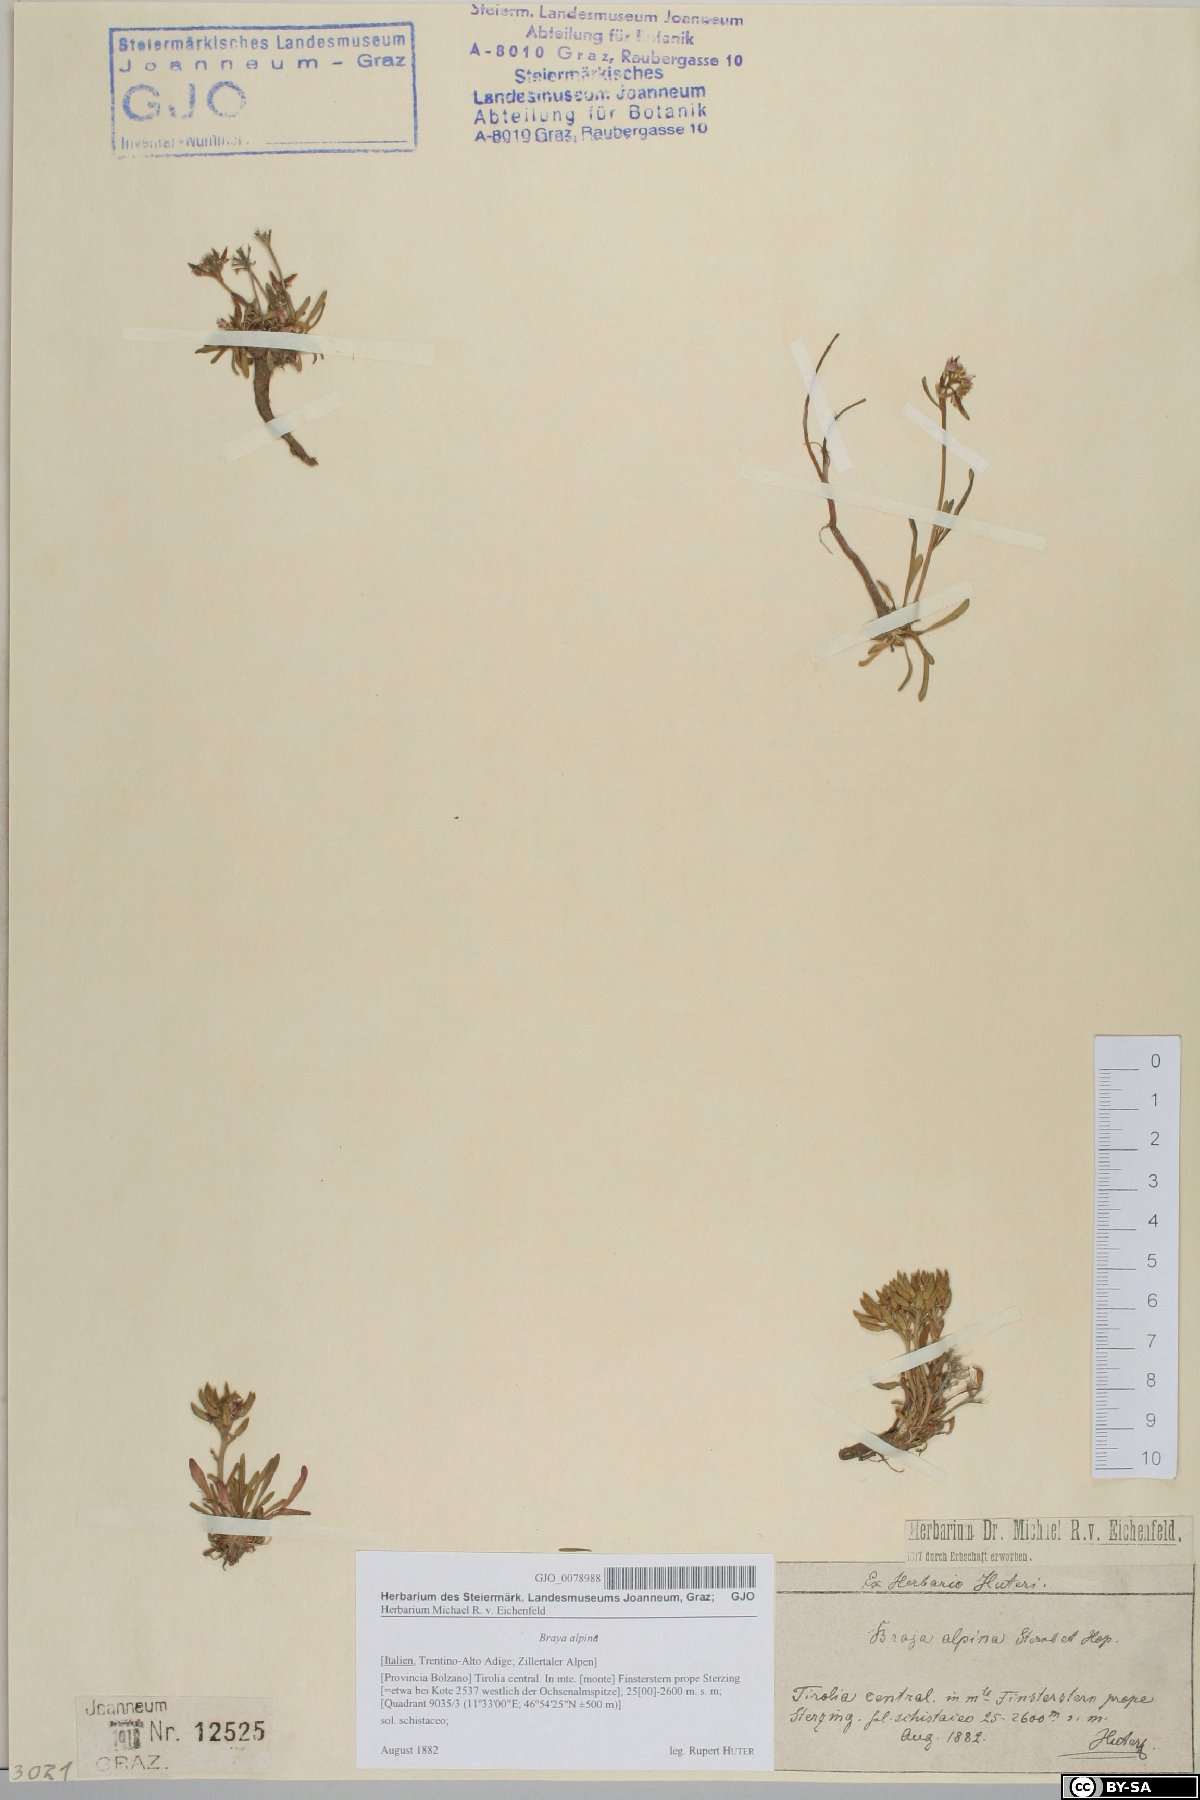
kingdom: Plantae
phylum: Tracheophyta
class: Magnoliopsida
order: Brassicales
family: Brassicaceae
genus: Braya
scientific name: Braya alpina
